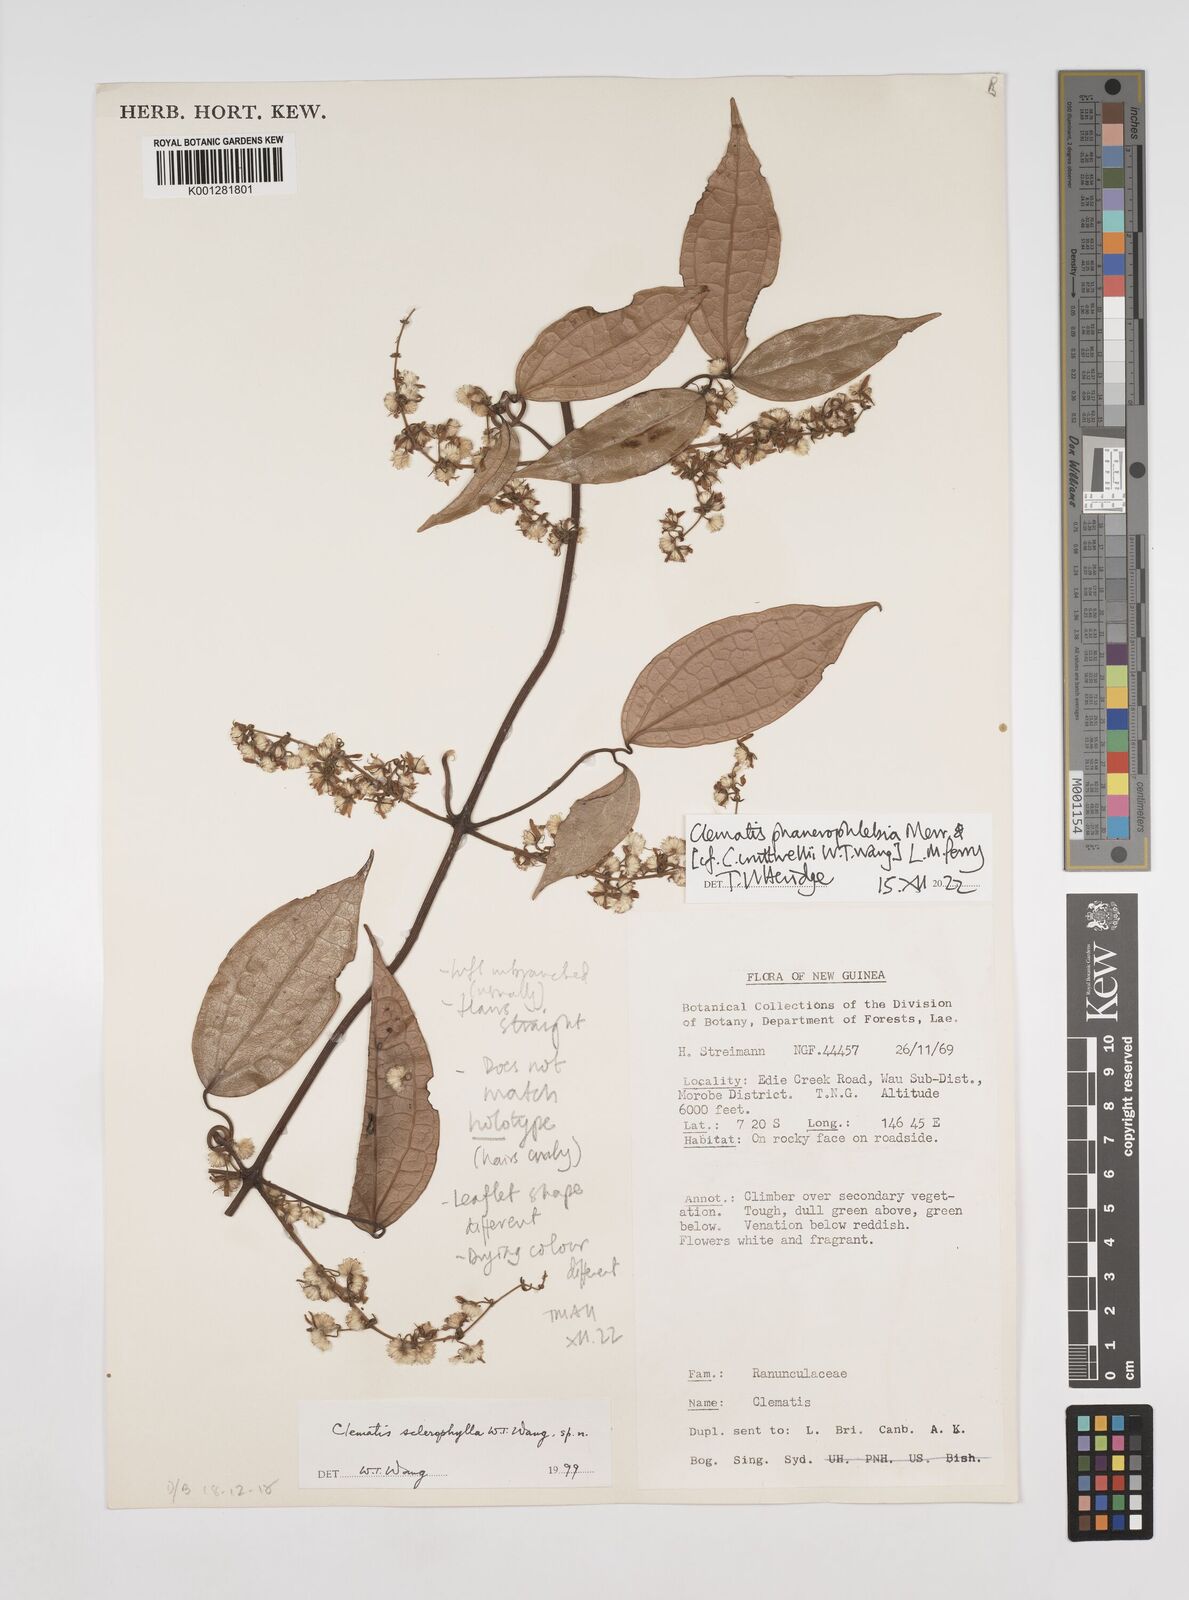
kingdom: Plantae
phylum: Tracheophyta
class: Magnoliopsida
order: Ranunculales
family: Ranunculaceae
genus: Clematis
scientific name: Clematis cruttwellii
